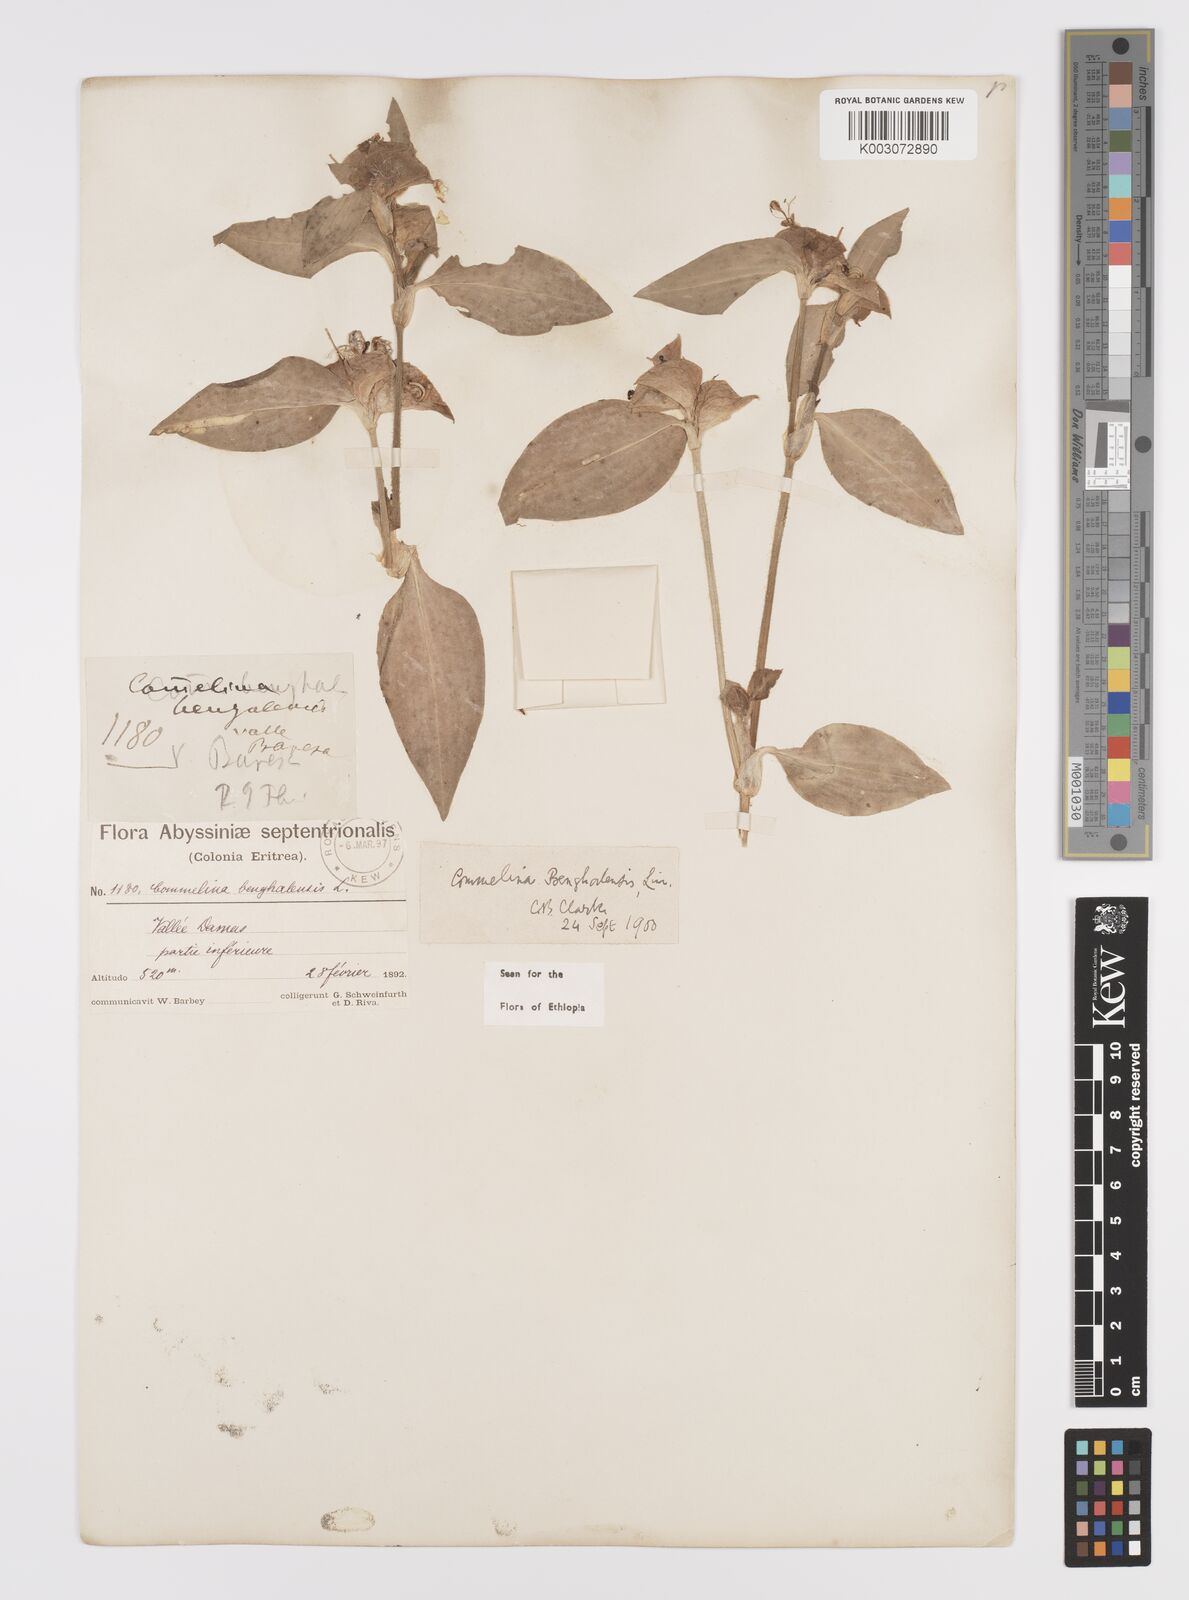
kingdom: Plantae
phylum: Tracheophyta
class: Liliopsida
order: Commelinales
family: Commelinaceae
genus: Commelina
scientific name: Commelina benghalensis
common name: Jio
